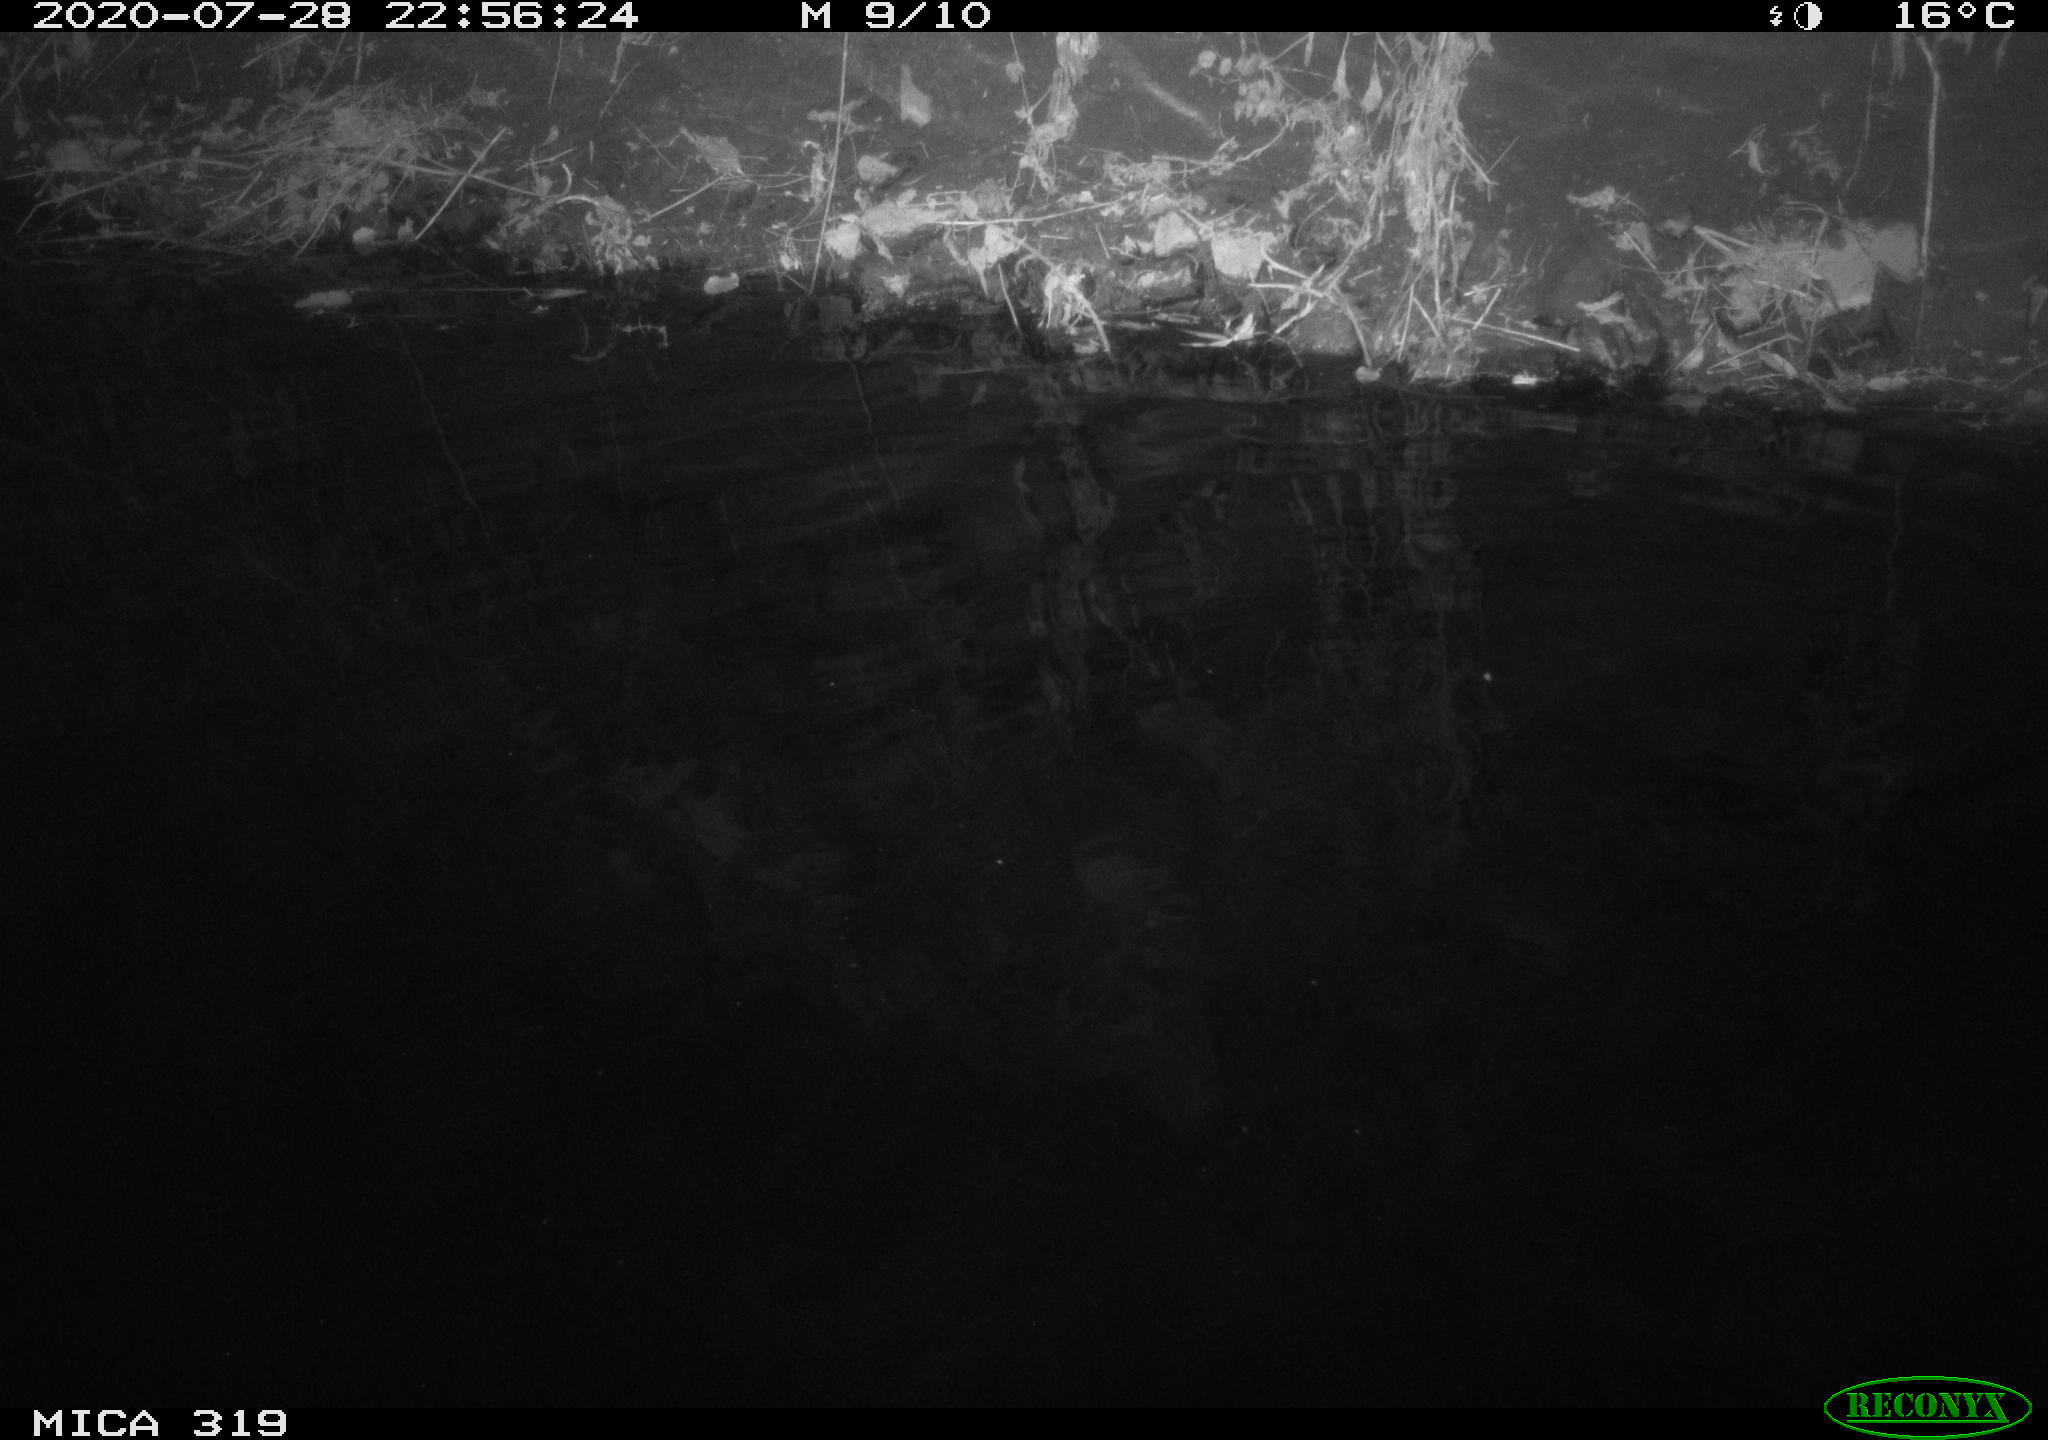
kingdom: Animalia
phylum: Chordata
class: Aves
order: Anseriformes
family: Anatidae
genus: Anas
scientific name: Anas platyrhynchos
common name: Mallard
